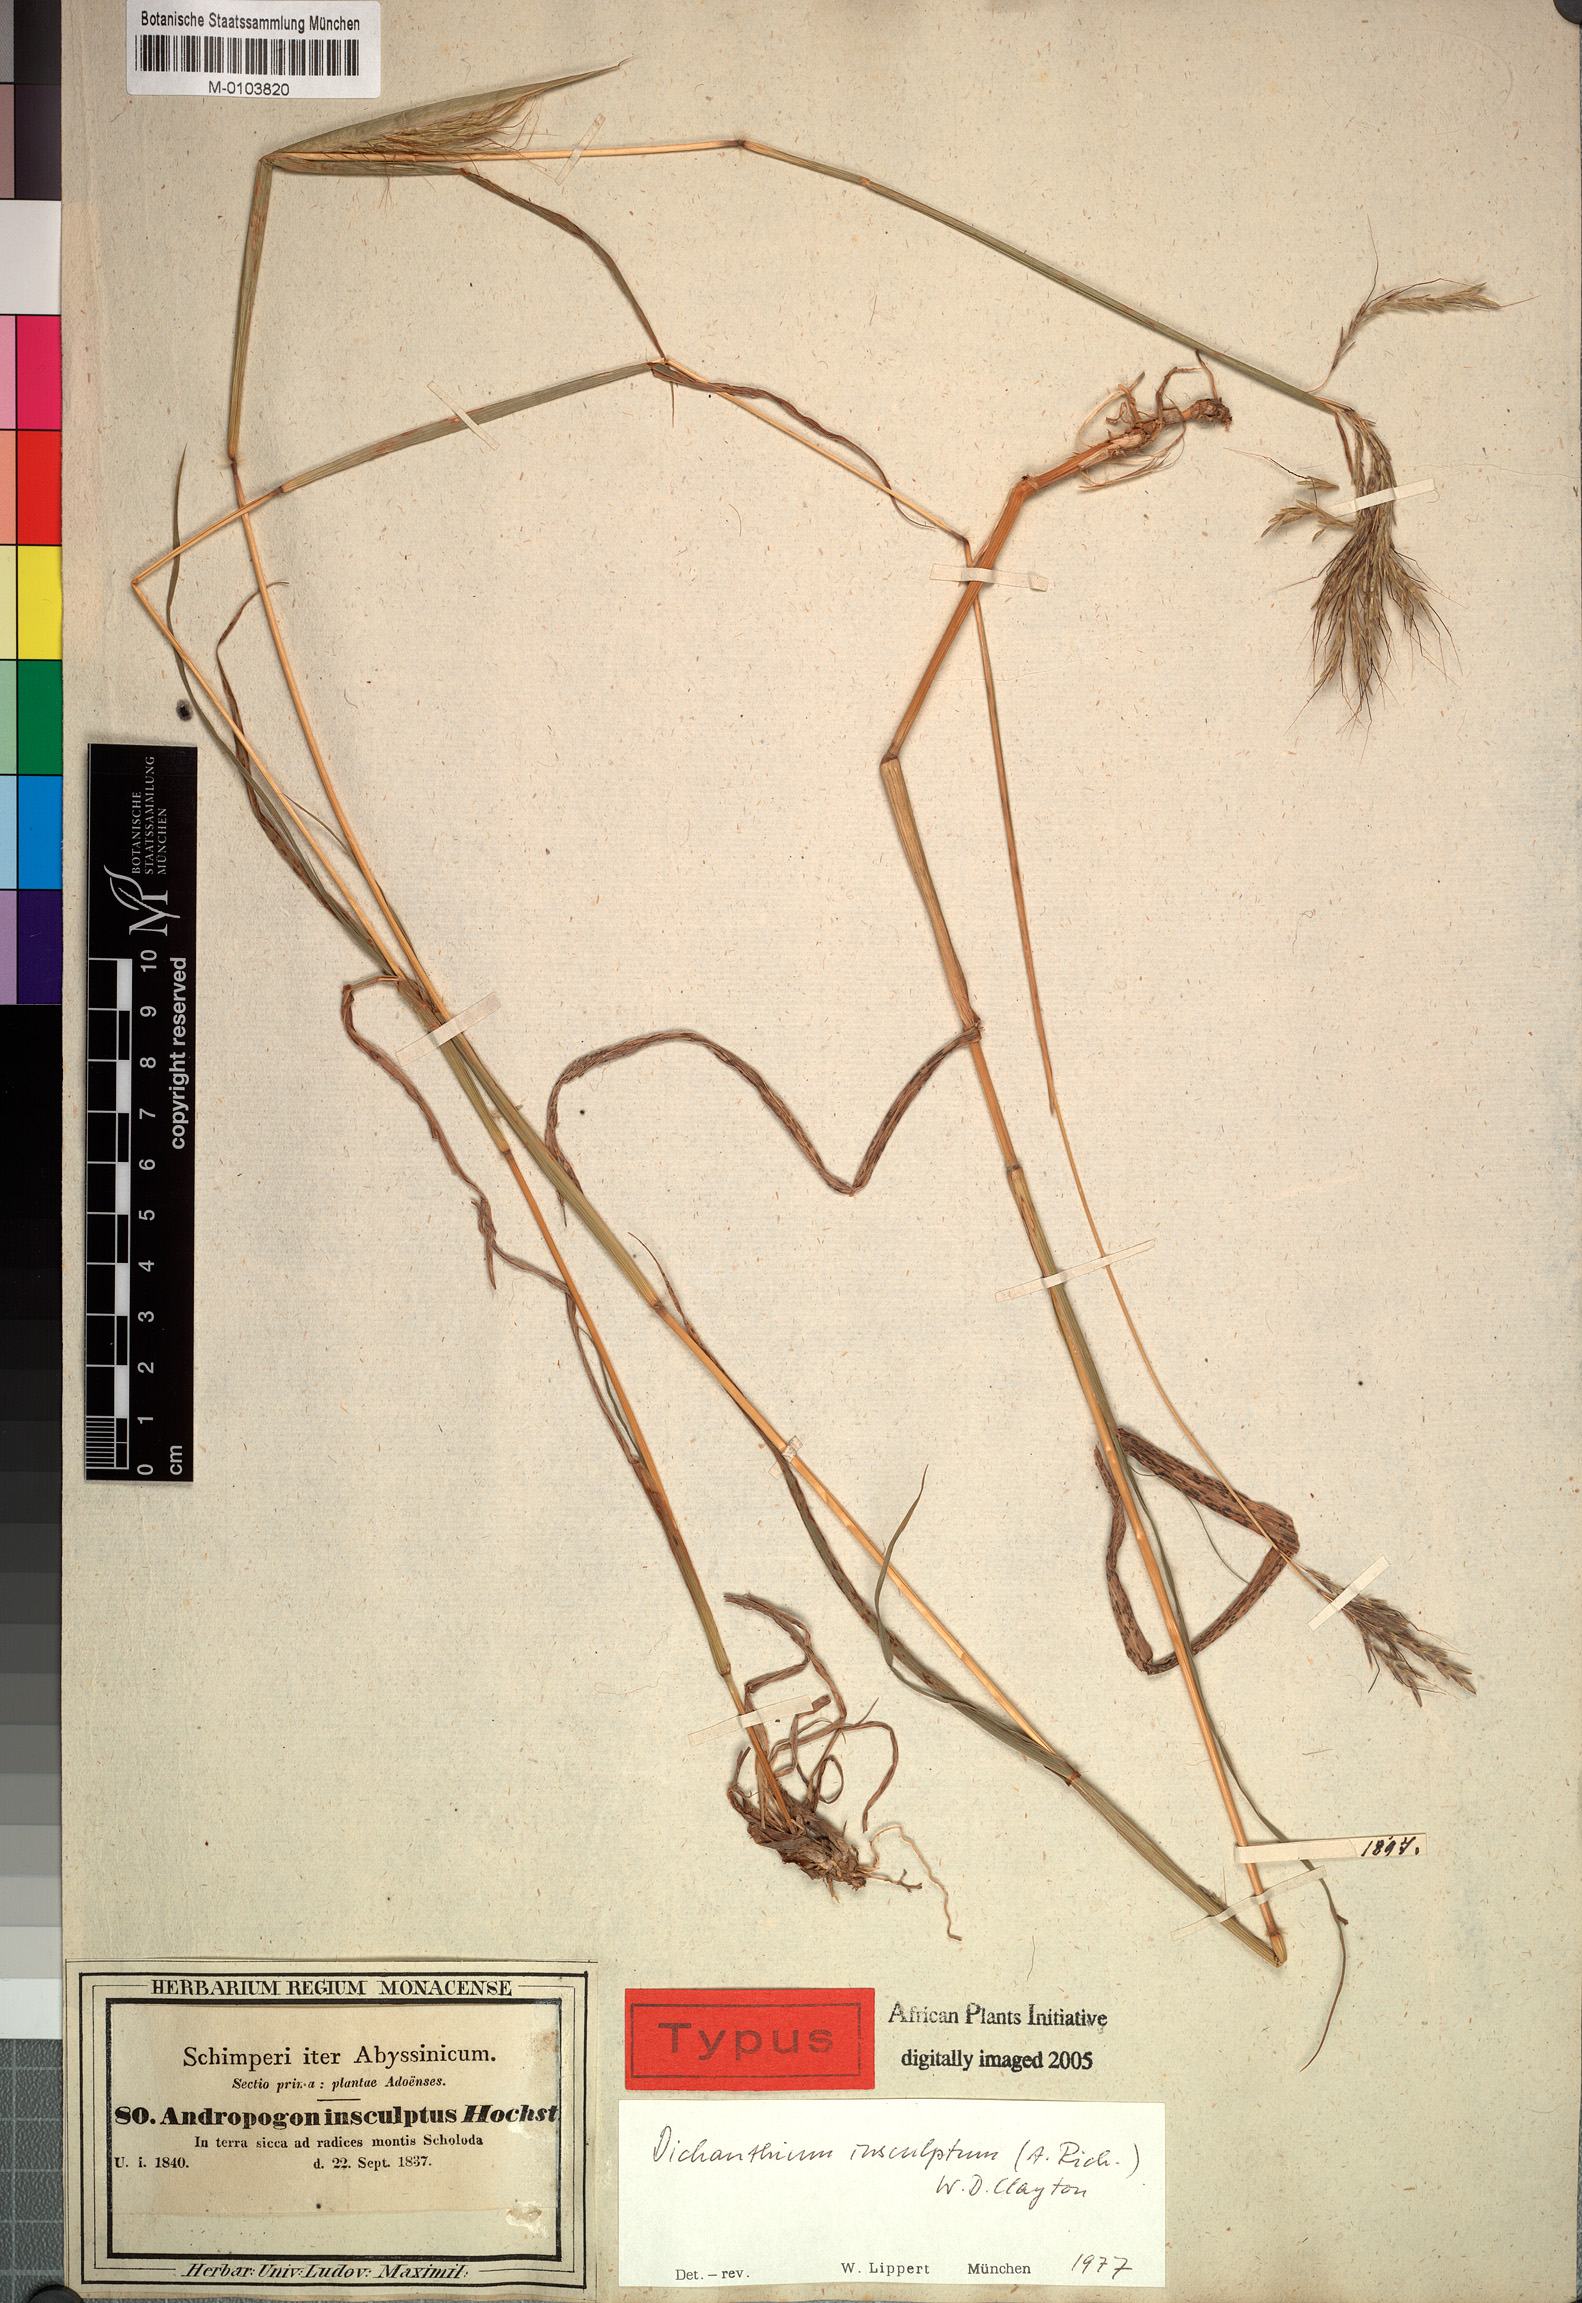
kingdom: Plantae
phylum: Tracheophyta
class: Liliopsida
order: Poales
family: Poaceae
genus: Bothriochloa
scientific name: Bothriochloa insculpta
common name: Creeping-bluegrass
